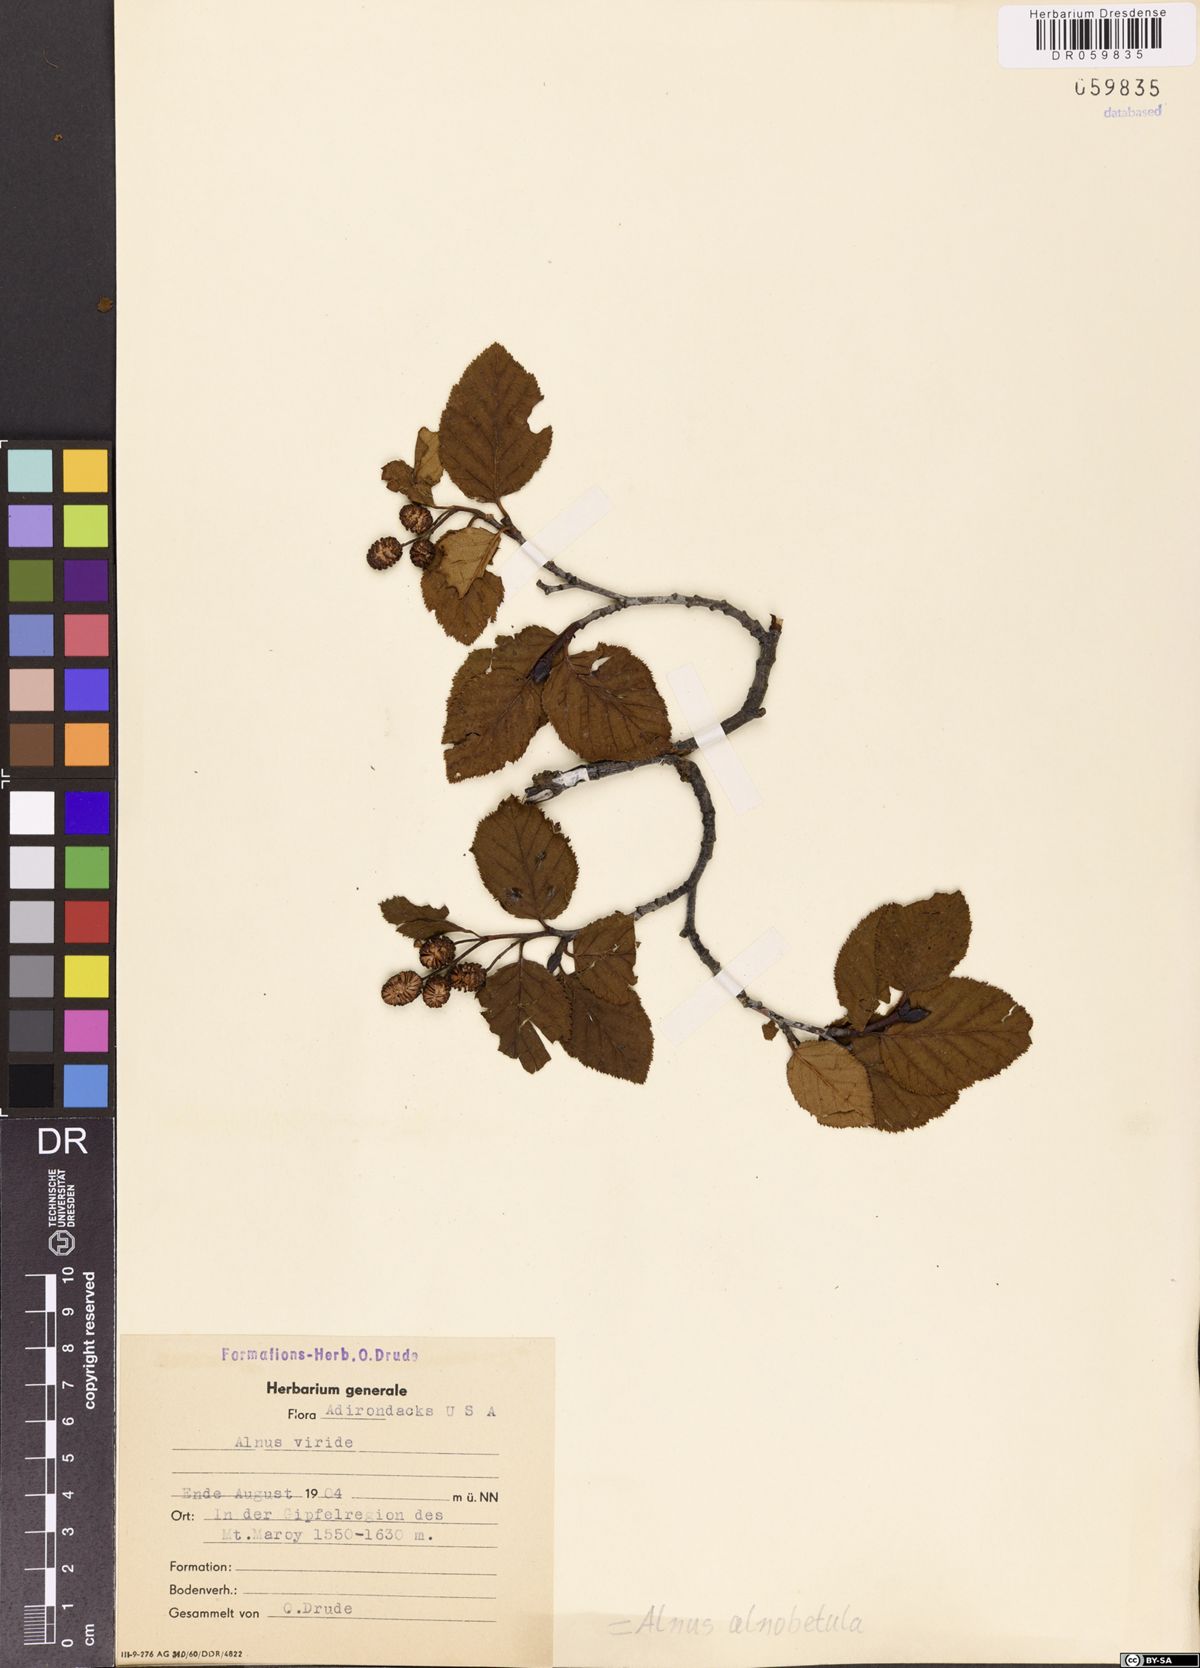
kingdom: Plantae
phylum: Tracheophyta
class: Magnoliopsida
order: Fagales
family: Betulaceae
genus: Alnus
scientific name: Alnus alnobetula
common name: Green alder
